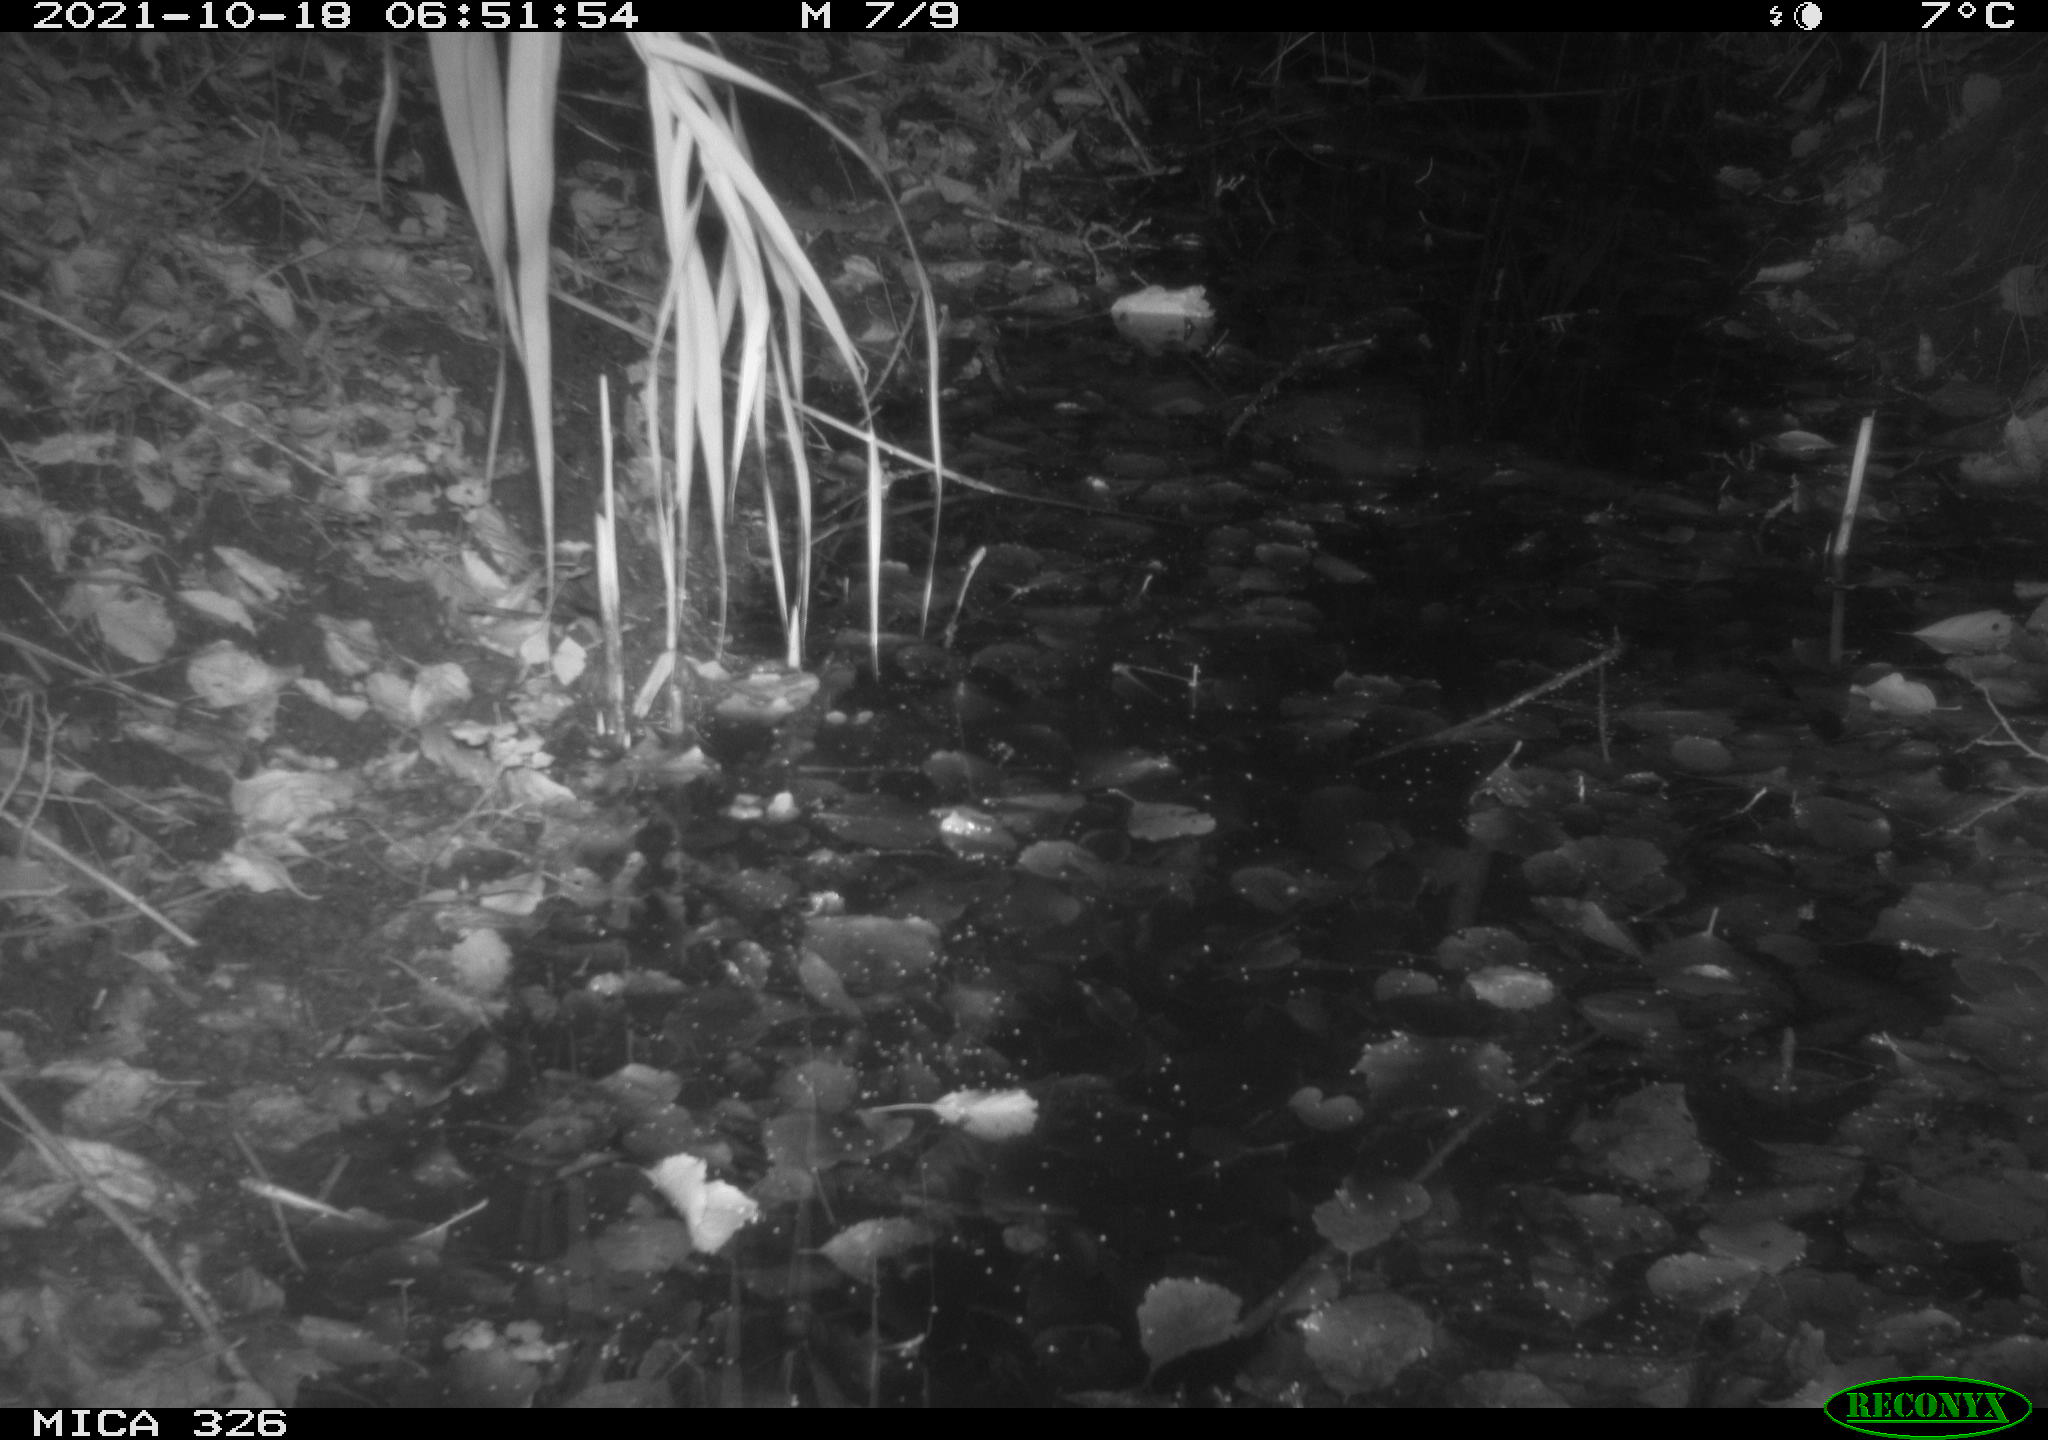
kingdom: Animalia
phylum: Chordata
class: Mammalia
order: Rodentia
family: Muridae
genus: Rattus
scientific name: Rattus norvegicus
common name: Brown rat
